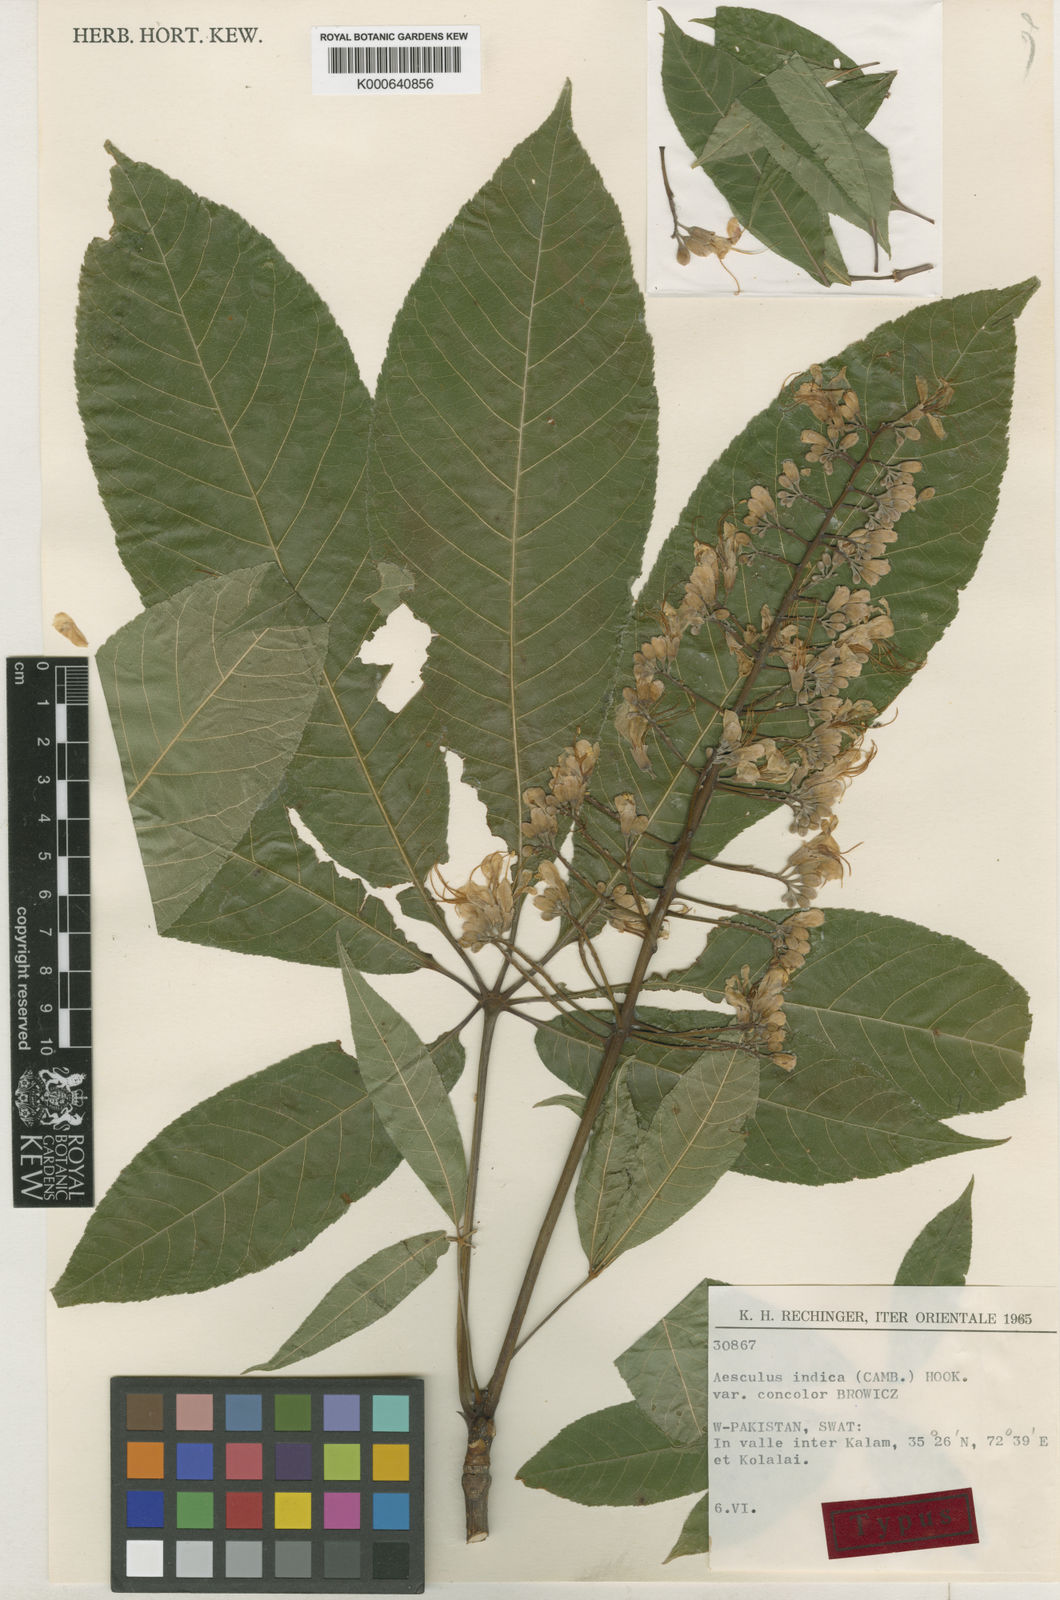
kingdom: Plantae
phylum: Tracheophyta
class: Magnoliopsida
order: Sapindales
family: Sapindaceae
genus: Aesculus
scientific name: Aesculus indica
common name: Indian horse-chestnut
